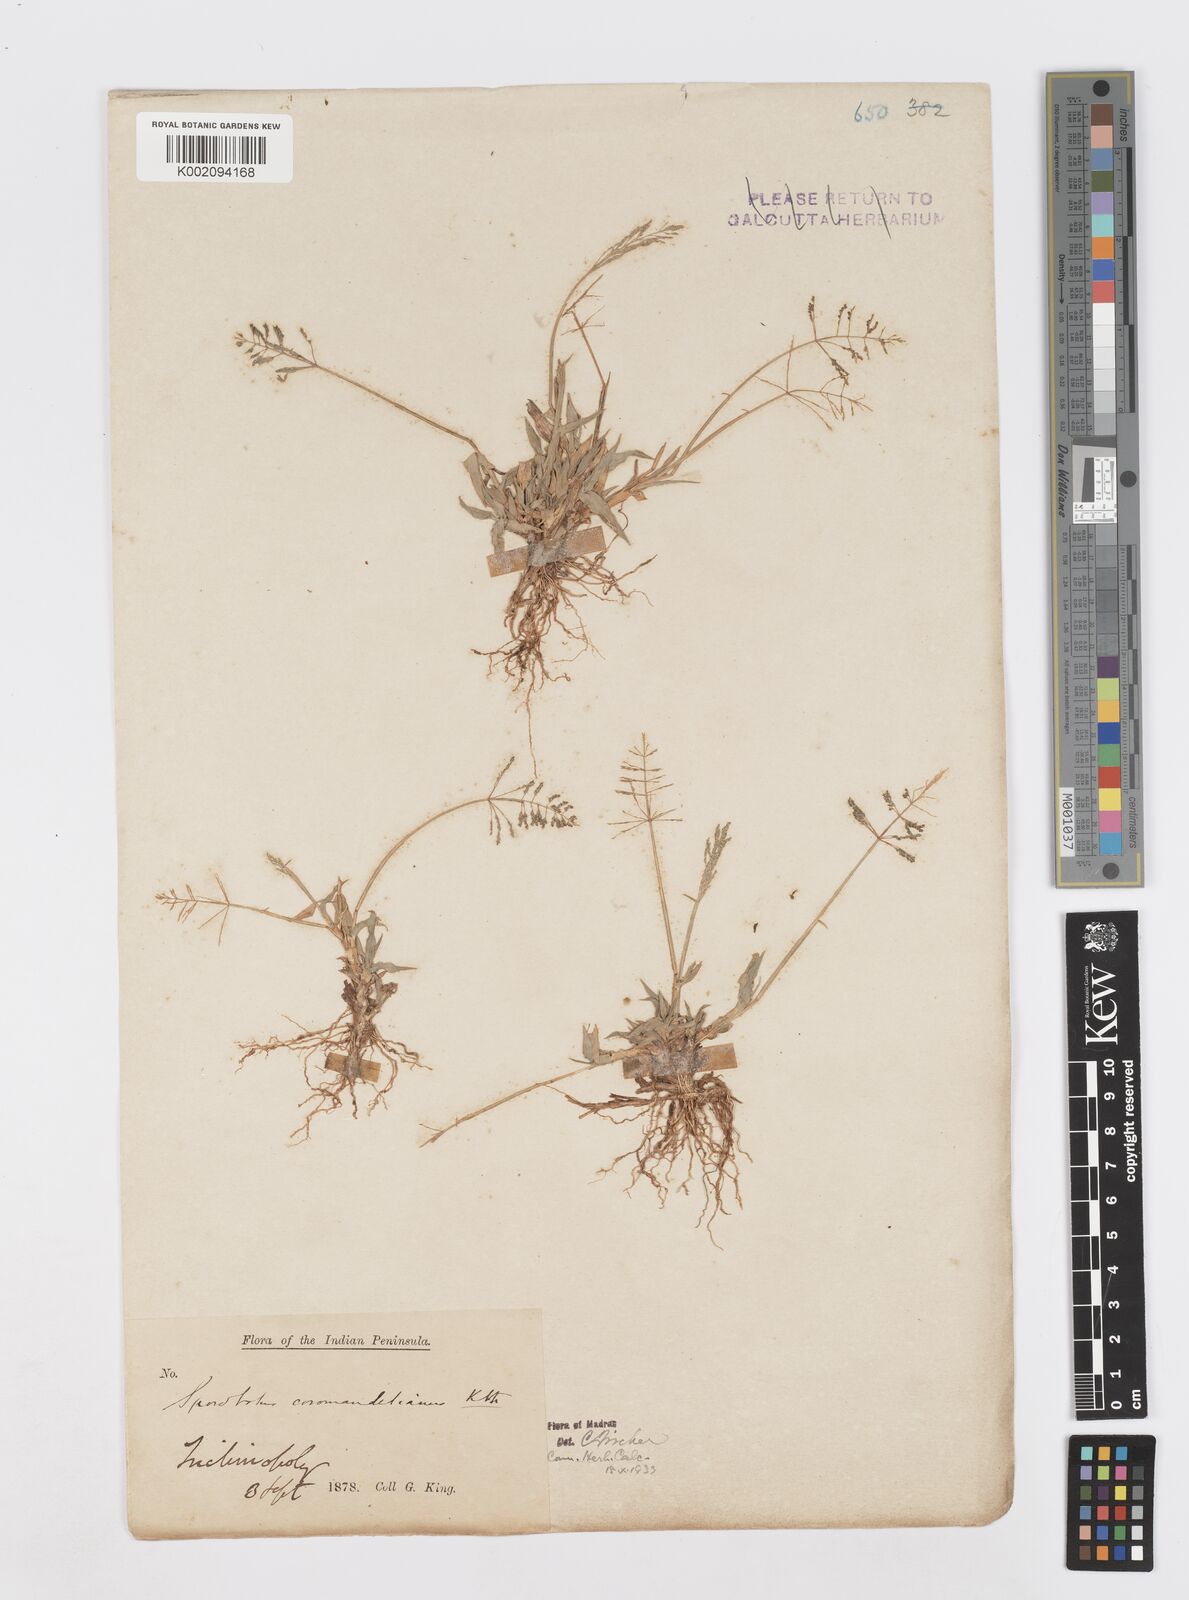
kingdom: Plantae
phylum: Tracheophyta
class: Liliopsida
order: Poales
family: Poaceae
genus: Sporobolus
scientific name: Sporobolus coromandelianus
